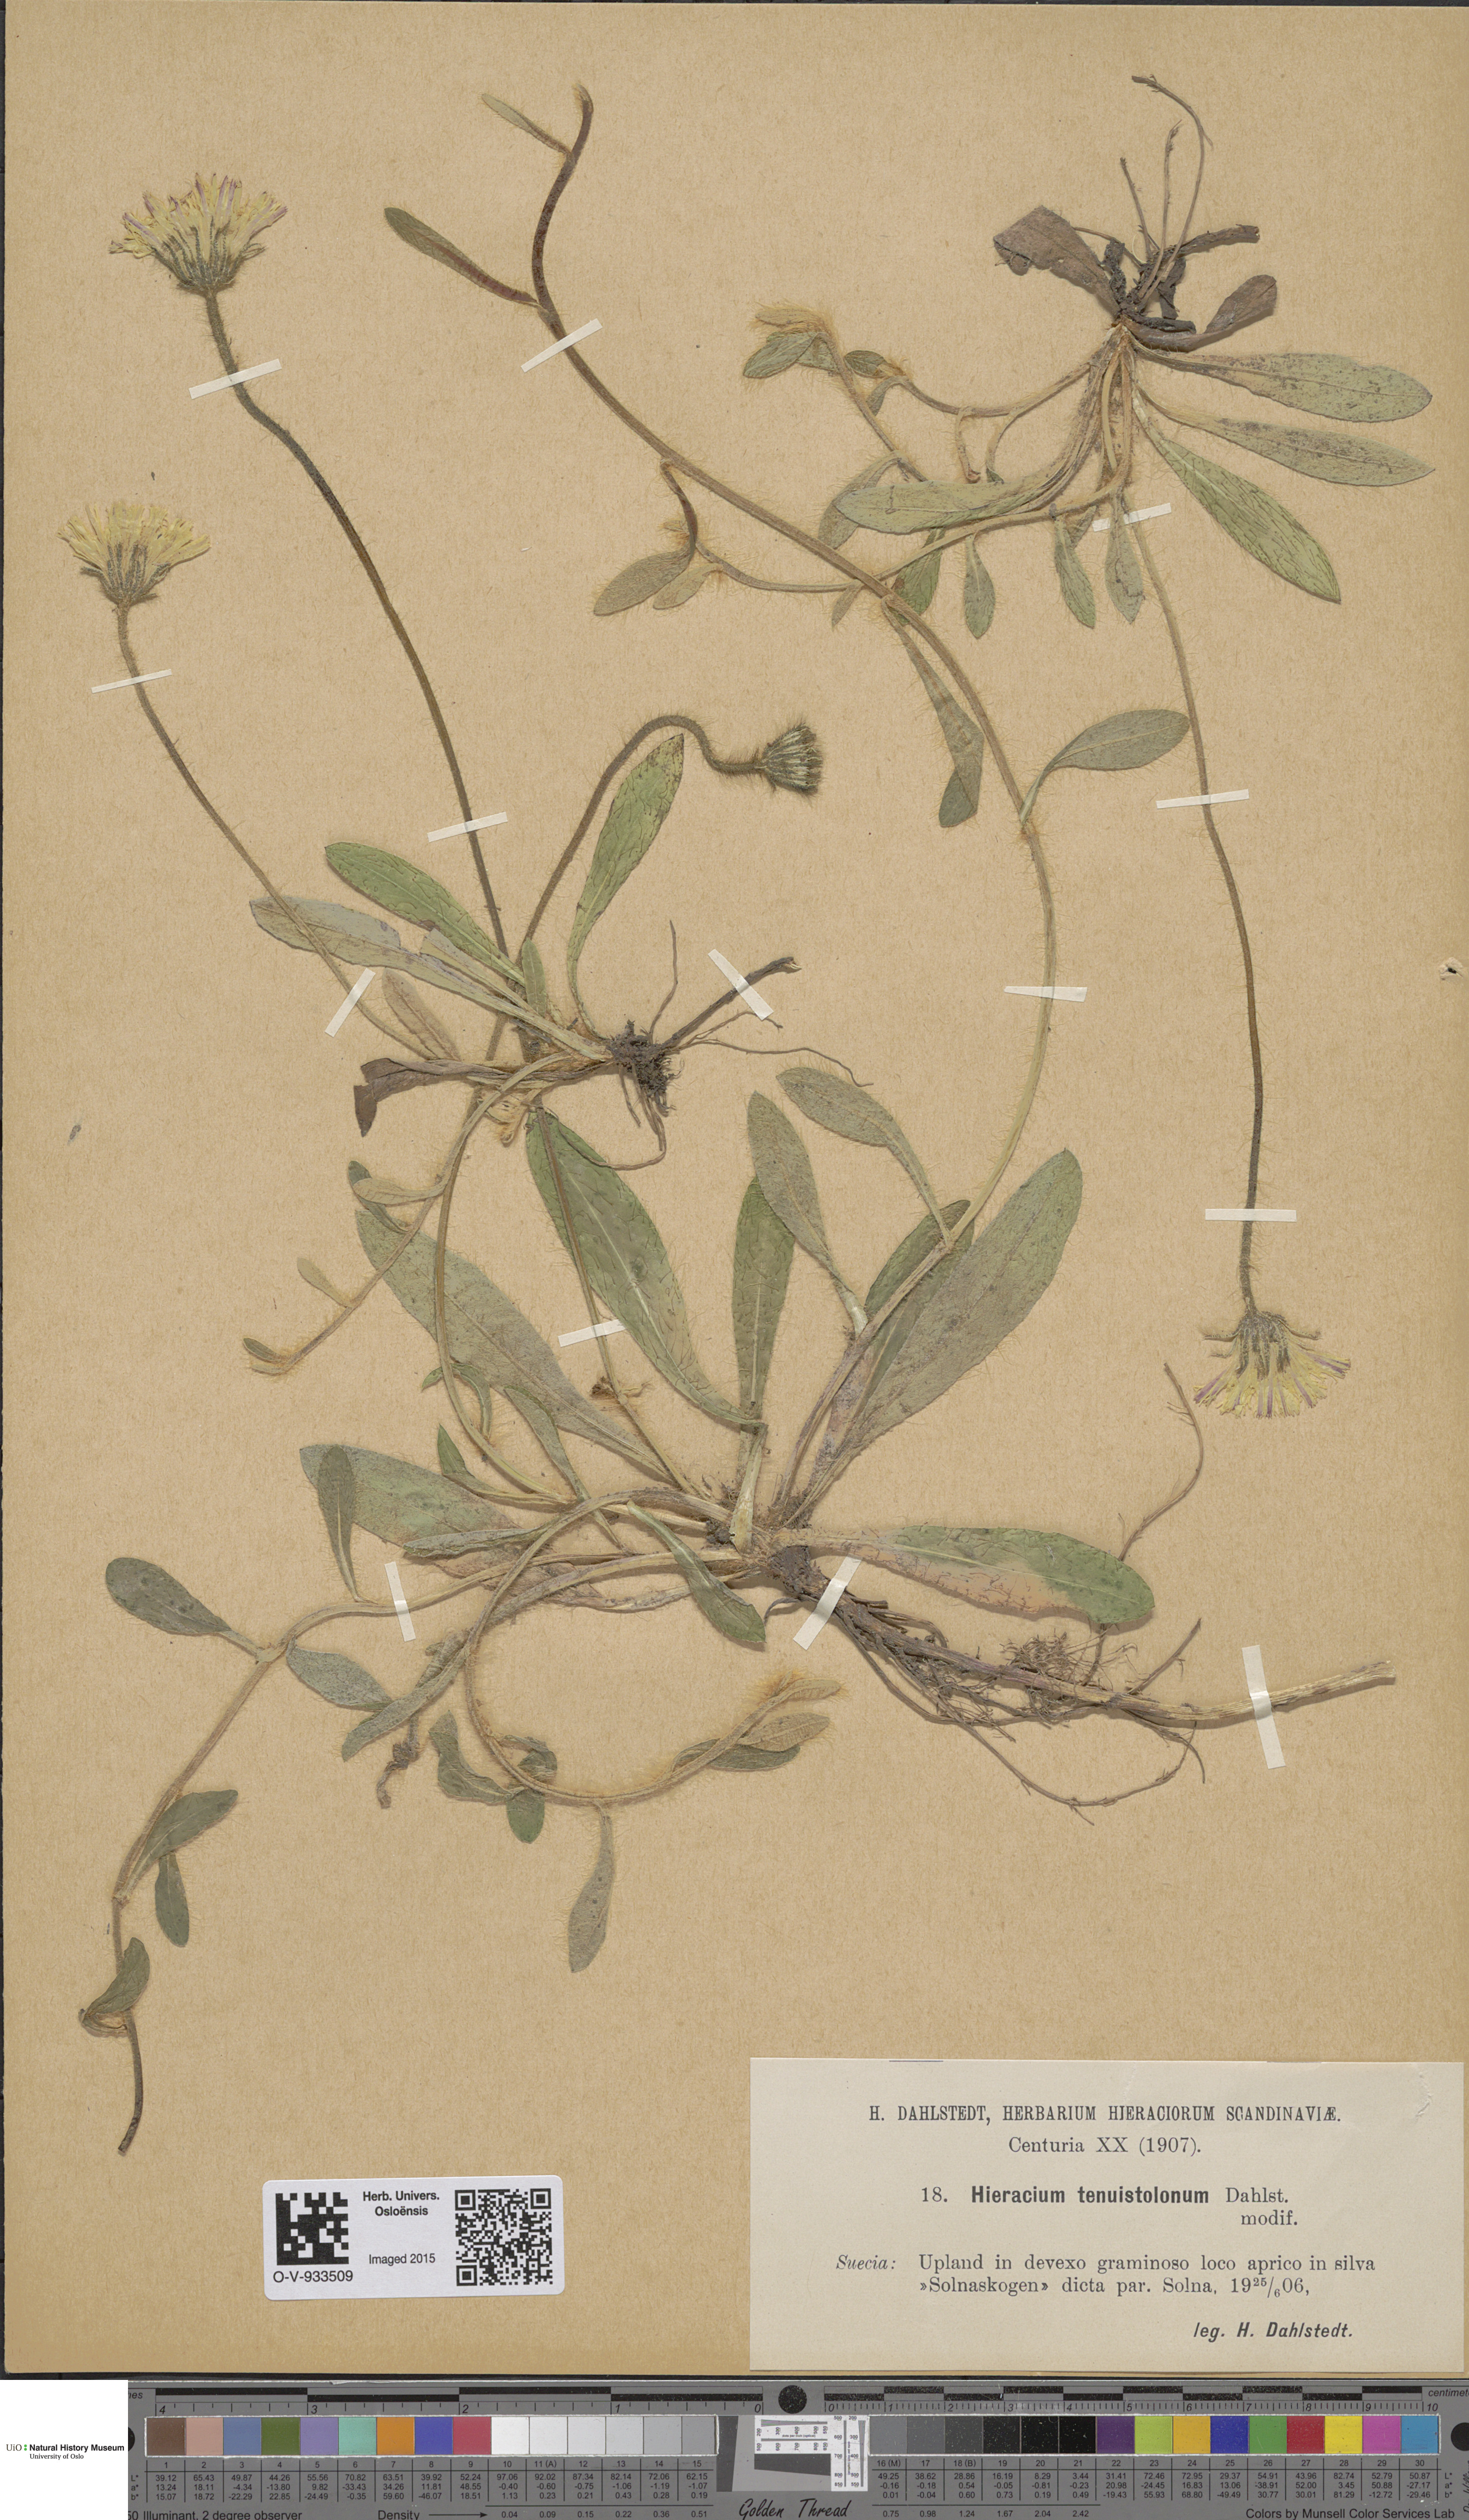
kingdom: Plantae
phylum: Tracheophyta
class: Magnoliopsida
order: Asterales
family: Asteraceae
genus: Pilosella
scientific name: Pilosella officinarum
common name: Mouse-ear hawkweed
